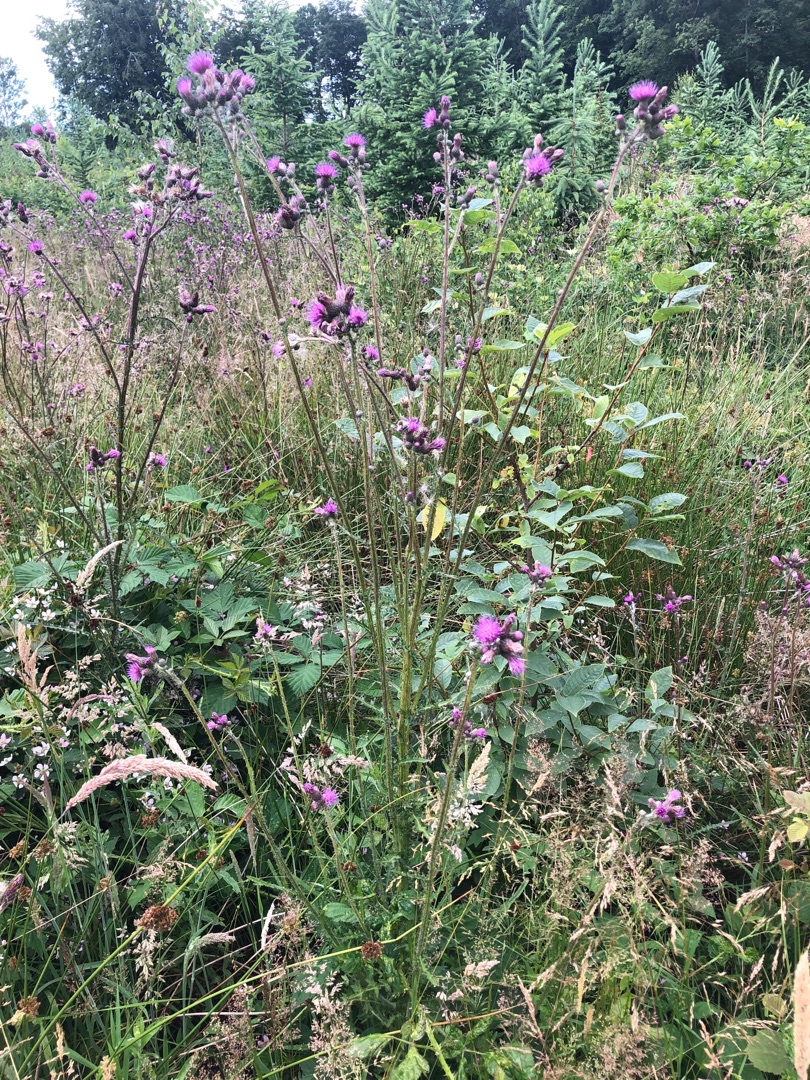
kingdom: Plantae
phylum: Tracheophyta
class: Magnoliopsida
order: Asterales
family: Asteraceae
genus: Cirsium
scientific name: Cirsium palustre
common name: Kær-tidsel
